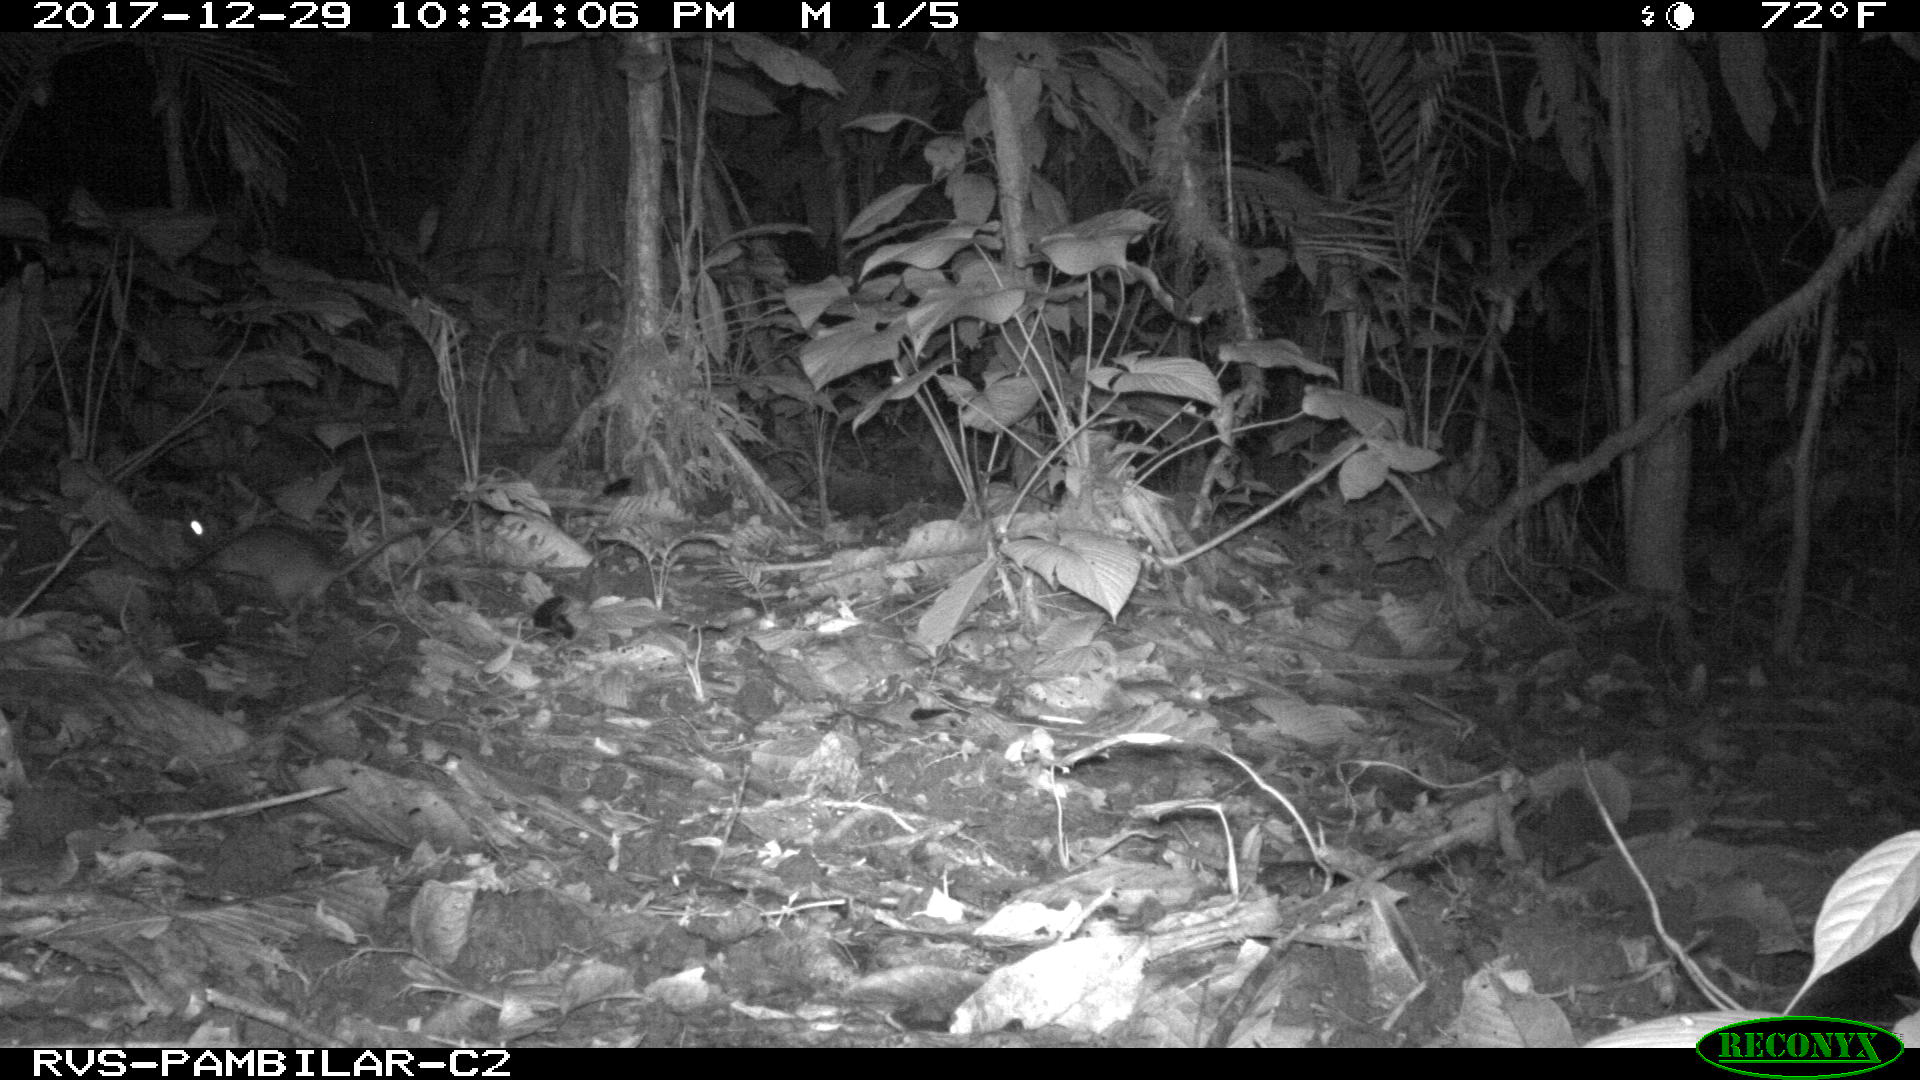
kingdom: Animalia
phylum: Chordata
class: Mammalia
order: Rodentia
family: Echimyidae
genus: Proechimys
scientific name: Proechimys
